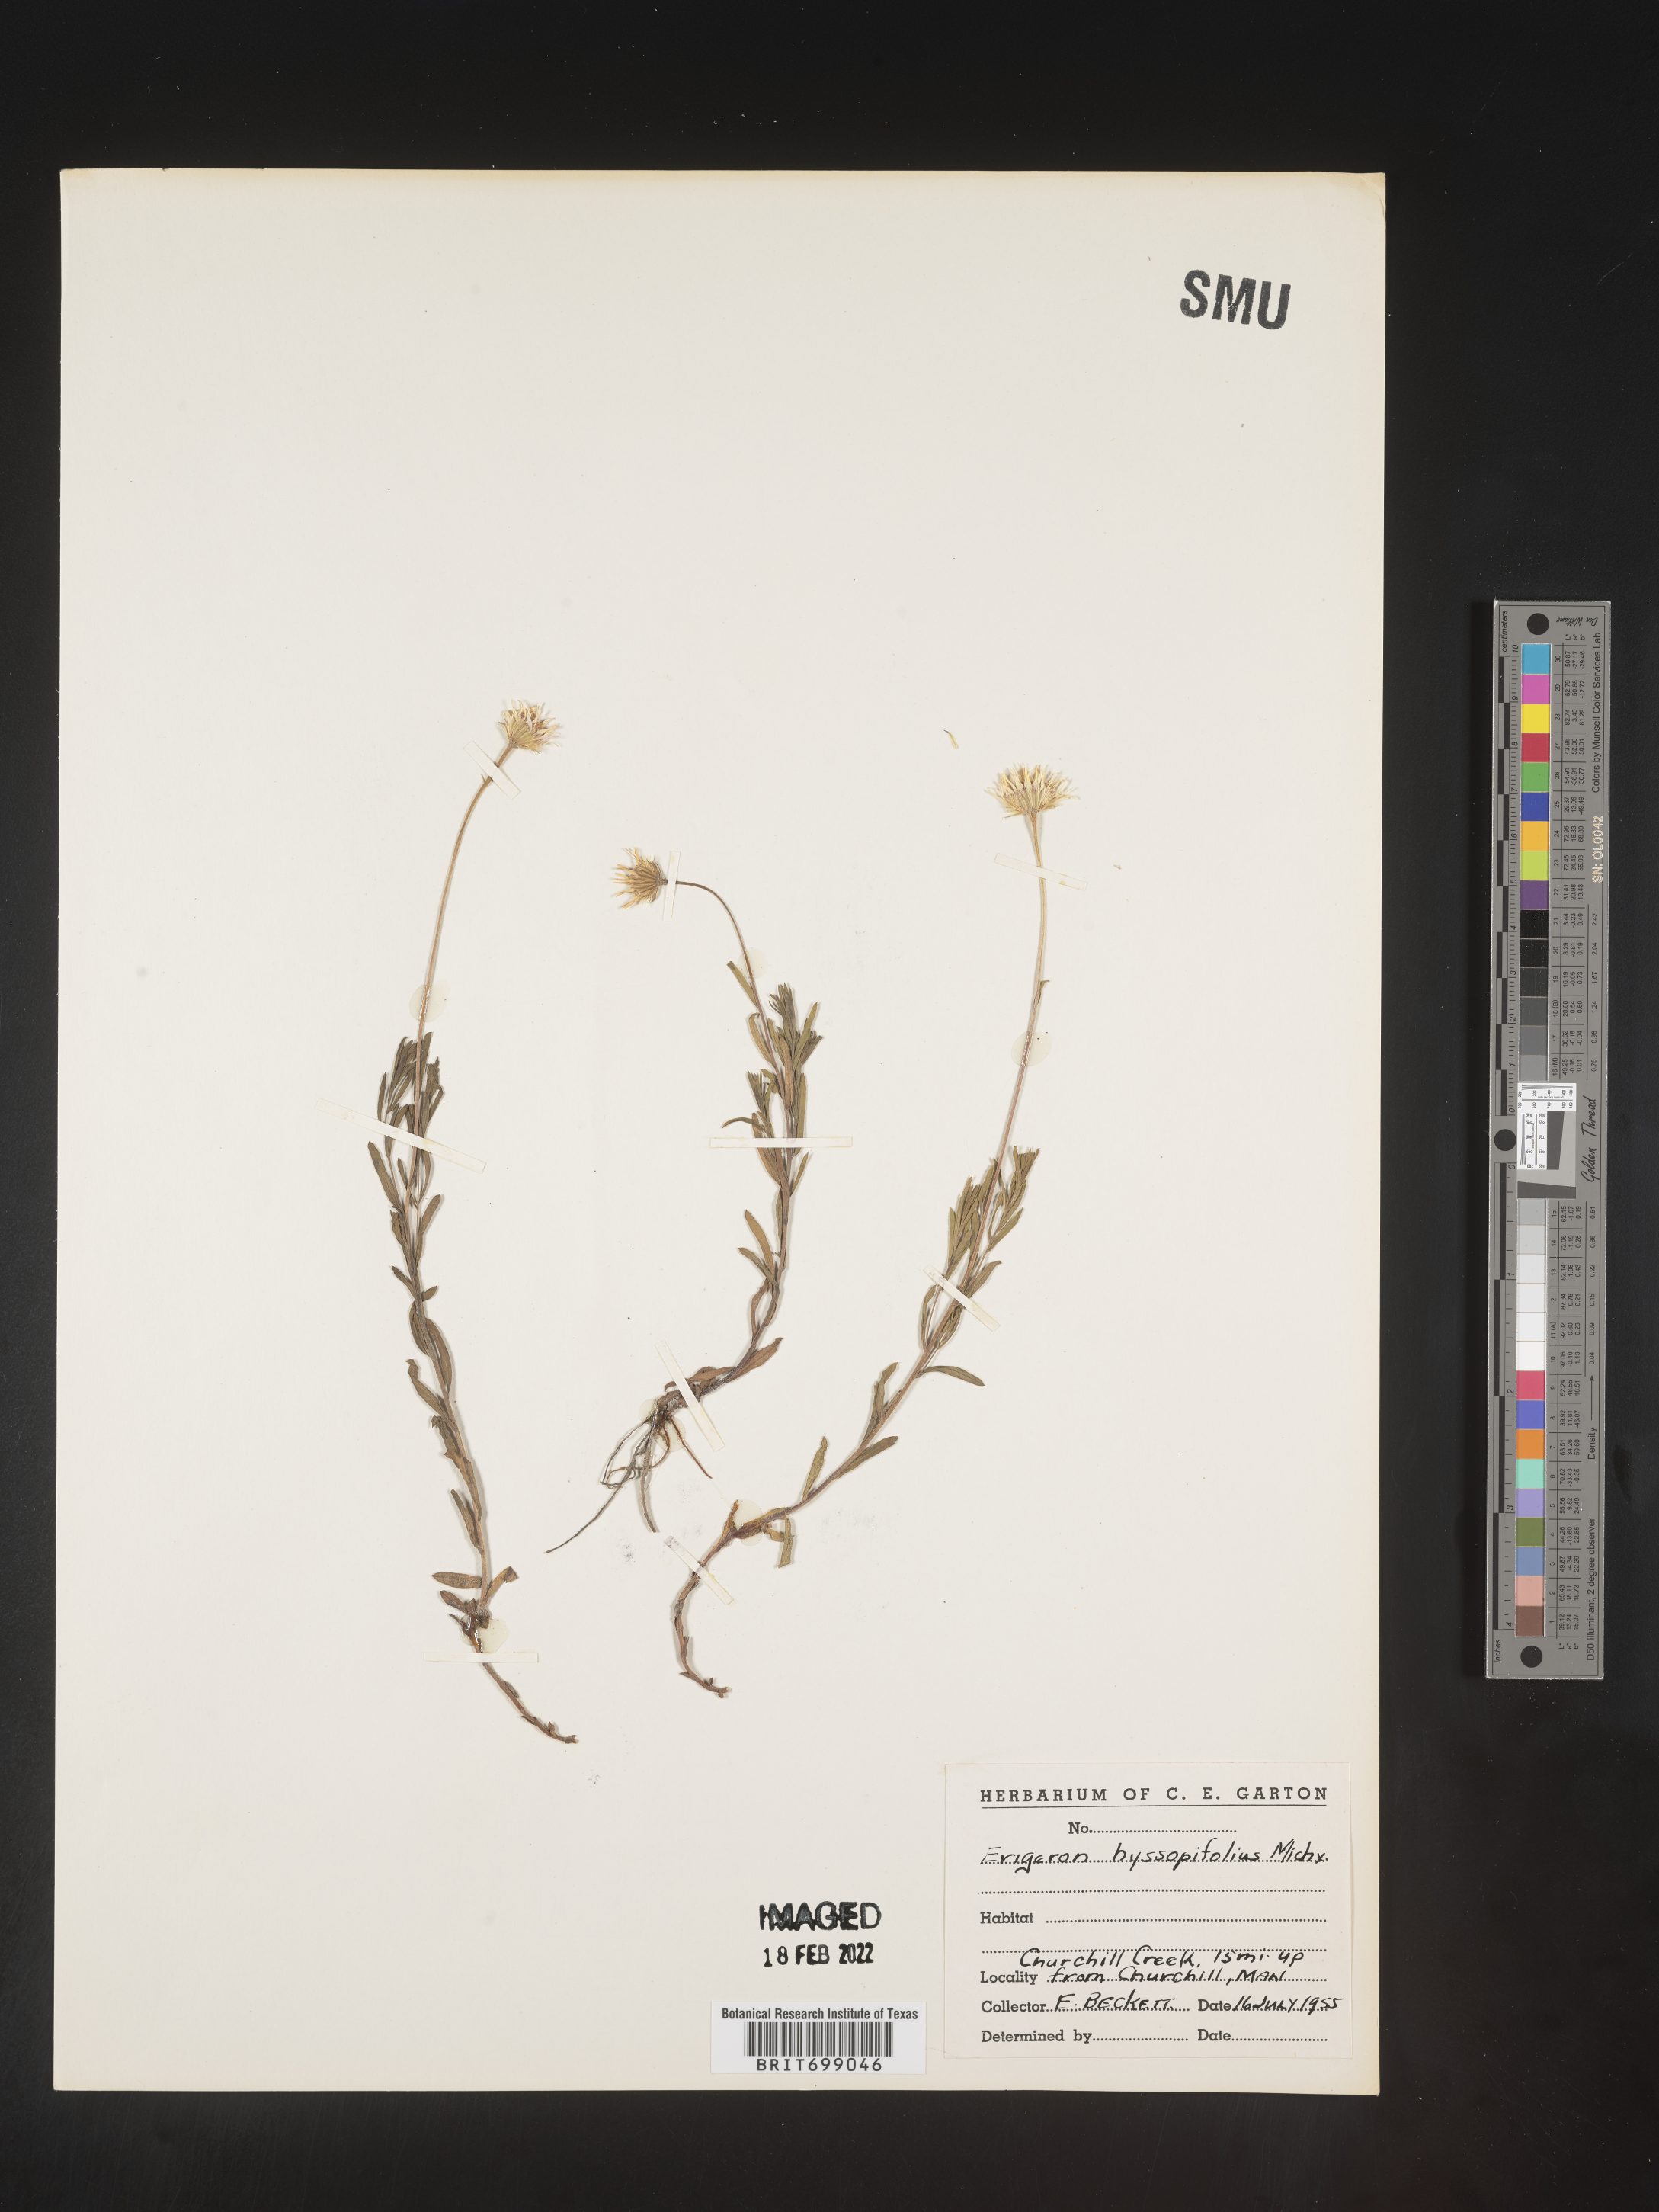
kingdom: Plantae
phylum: Tracheophyta
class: Magnoliopsida
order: Asterales
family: Asteraceae
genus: Erigeron
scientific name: Erigeron hyssopifolius
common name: Daisy fleabane
